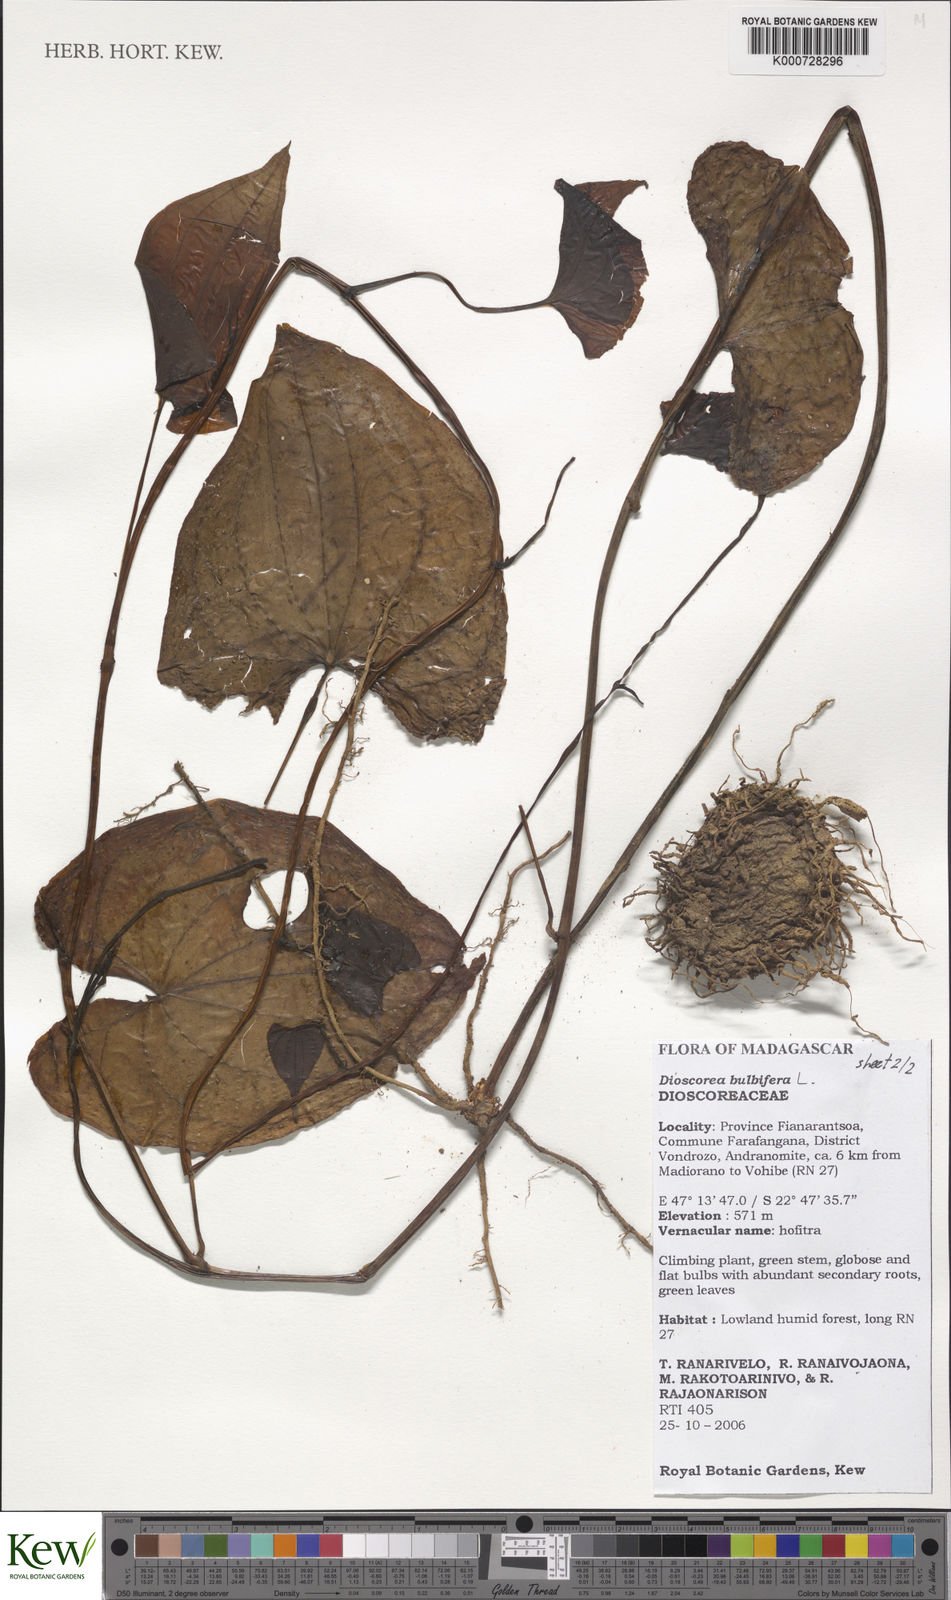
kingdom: Plantae
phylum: Tracheophyta
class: Liliopsida
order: Dioscoreales
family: Dioscoreaceae
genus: Dioscorea
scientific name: Dioscorea bulbifera
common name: Air yam
